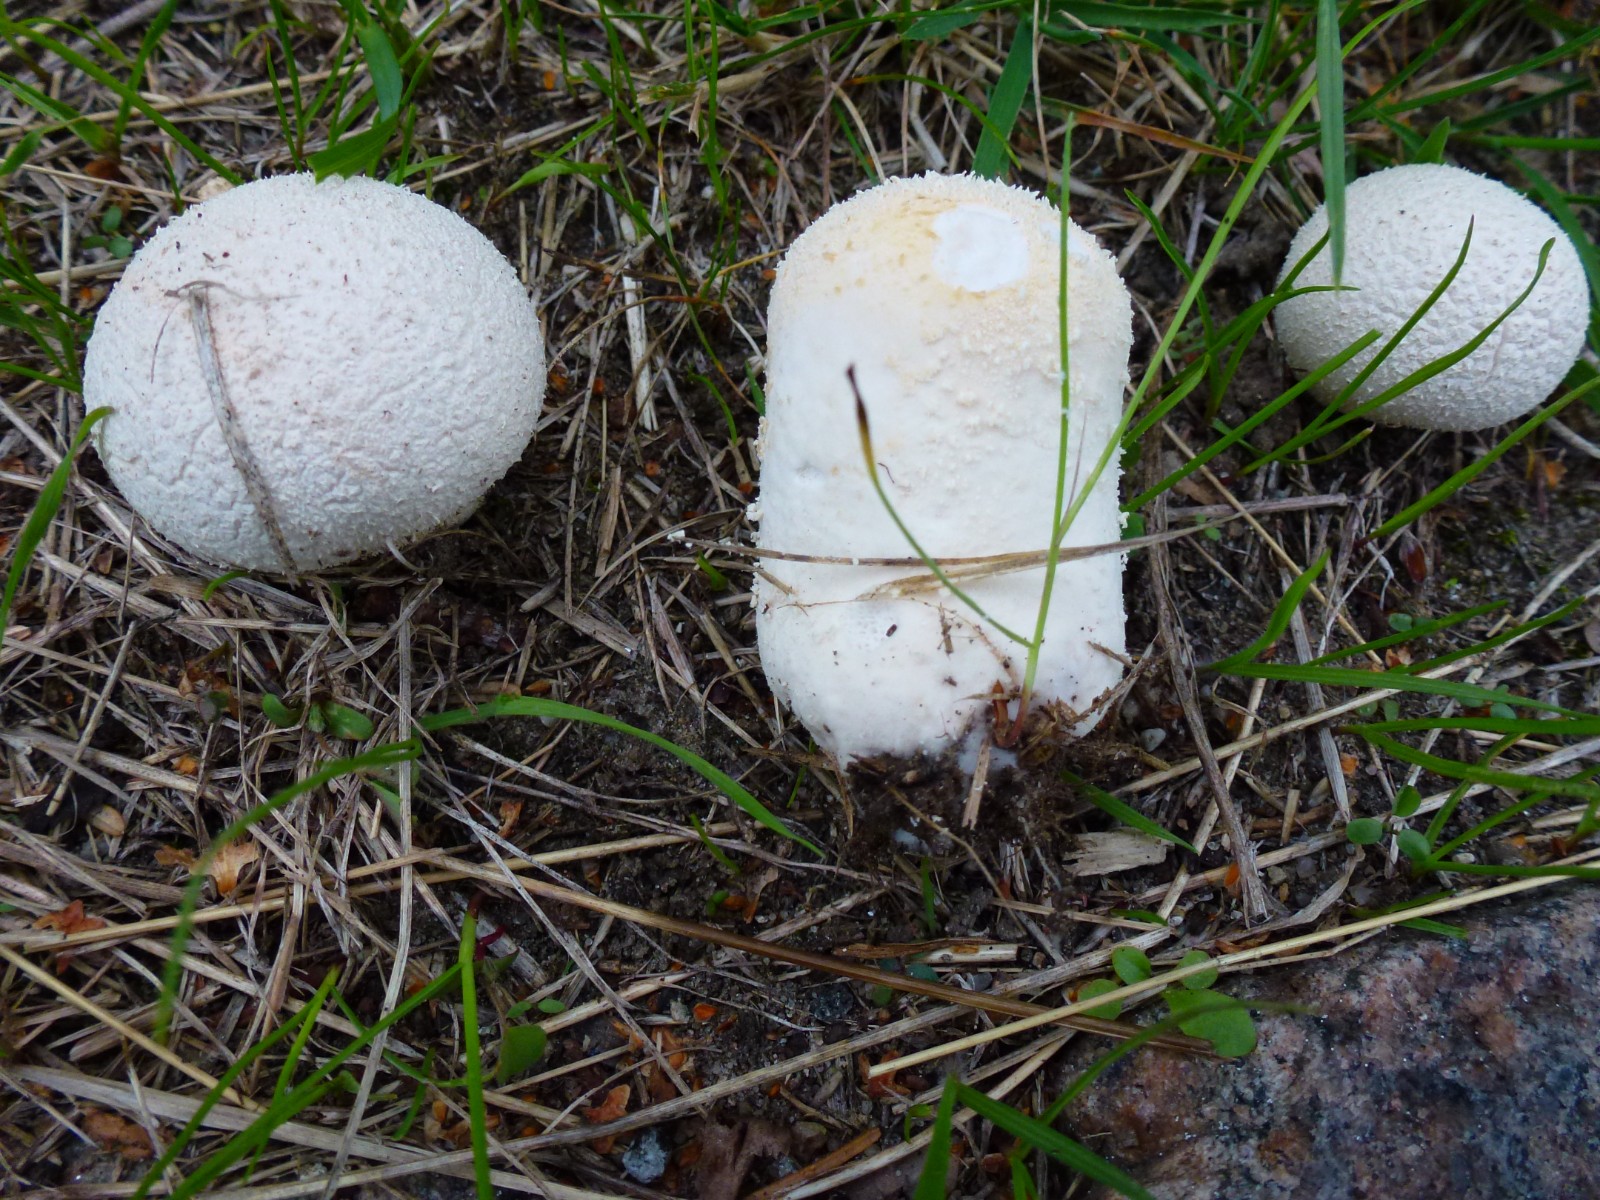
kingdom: Fungi
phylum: Basidiomycota
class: Agaricomycetes
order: Agaricales
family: Lycoperdaceae
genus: Lycoperdon
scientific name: Lycoperdon pratense
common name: flad støvbold
